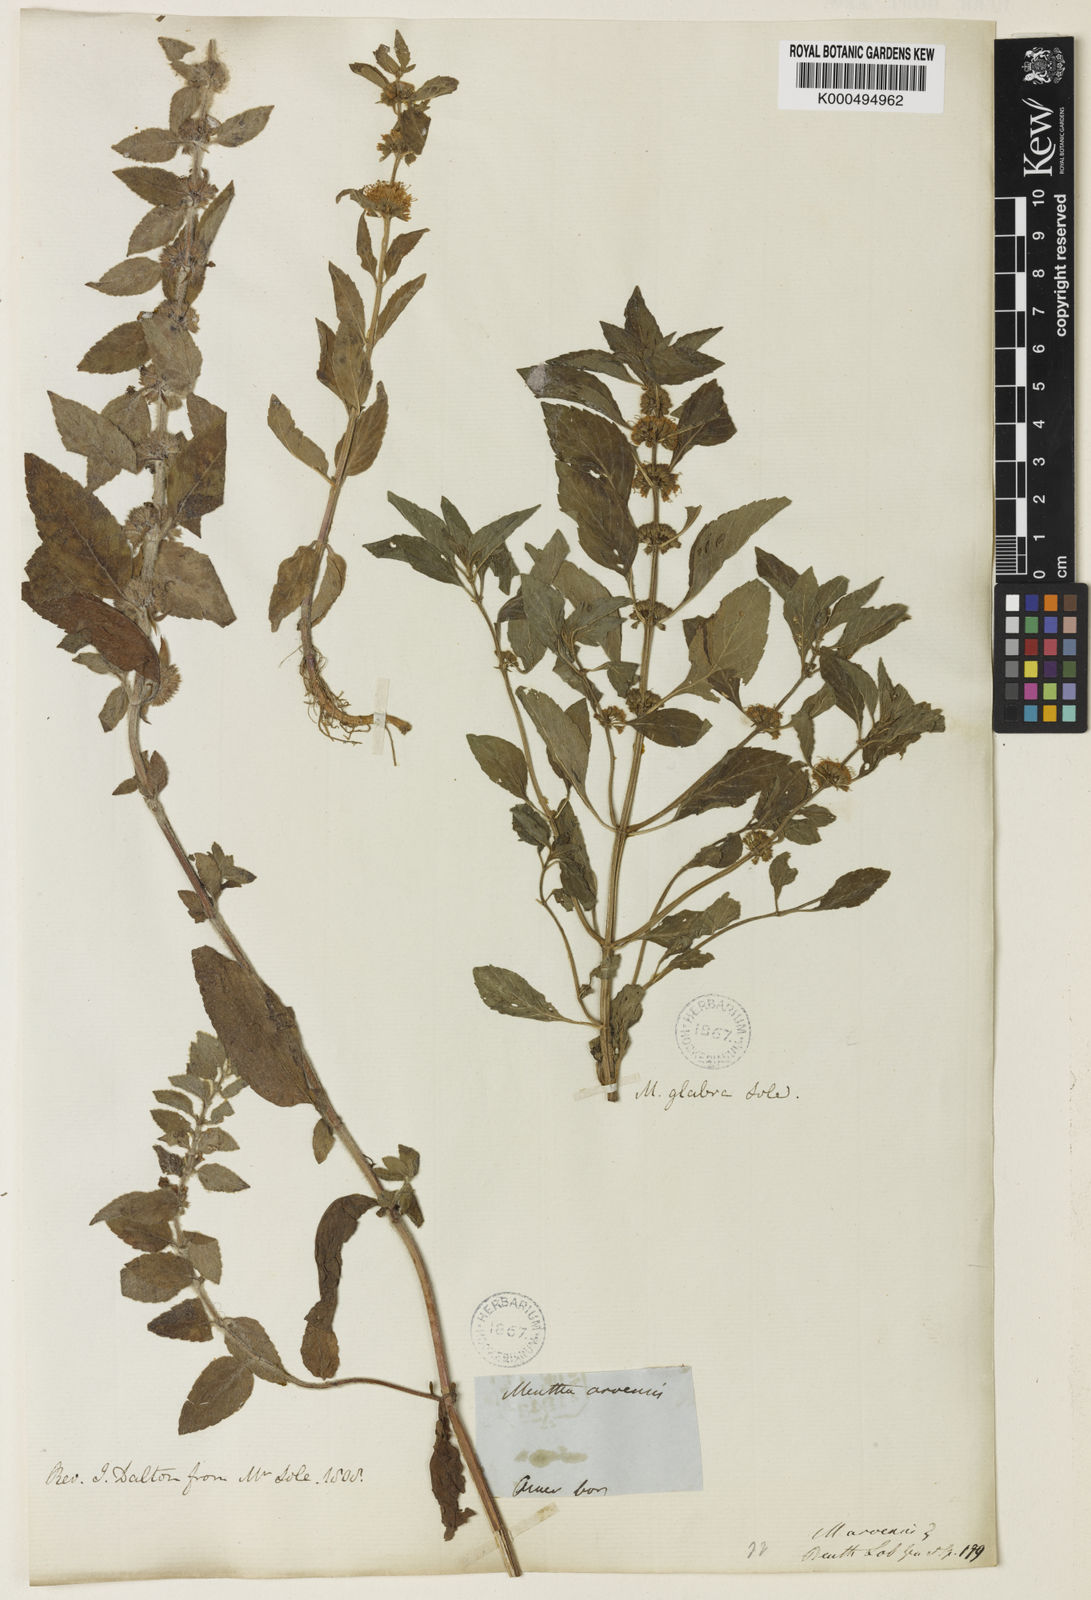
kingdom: Plantae
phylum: Tracheophyta
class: Magnoliopsida
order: Lamiales
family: Lamiaceae
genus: Mentha
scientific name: Mentha canadensis
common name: American corn mint
